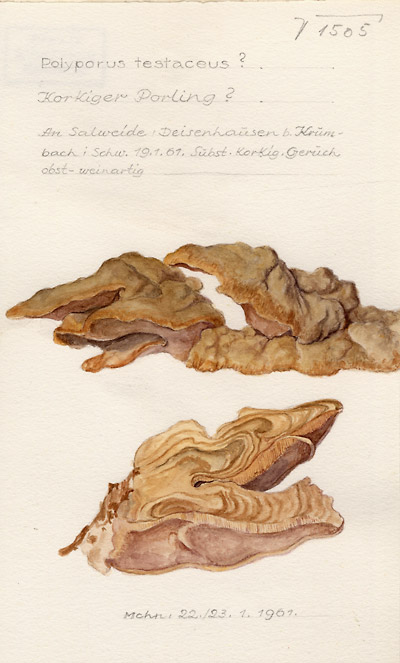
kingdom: Fungi
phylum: Basidiomycota
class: Agaricomycetes
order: Gloeophyllales
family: Gloeophyllaceae
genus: Gloeophyllum
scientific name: Gloeophyllum trabeum
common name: Timber mazegill
